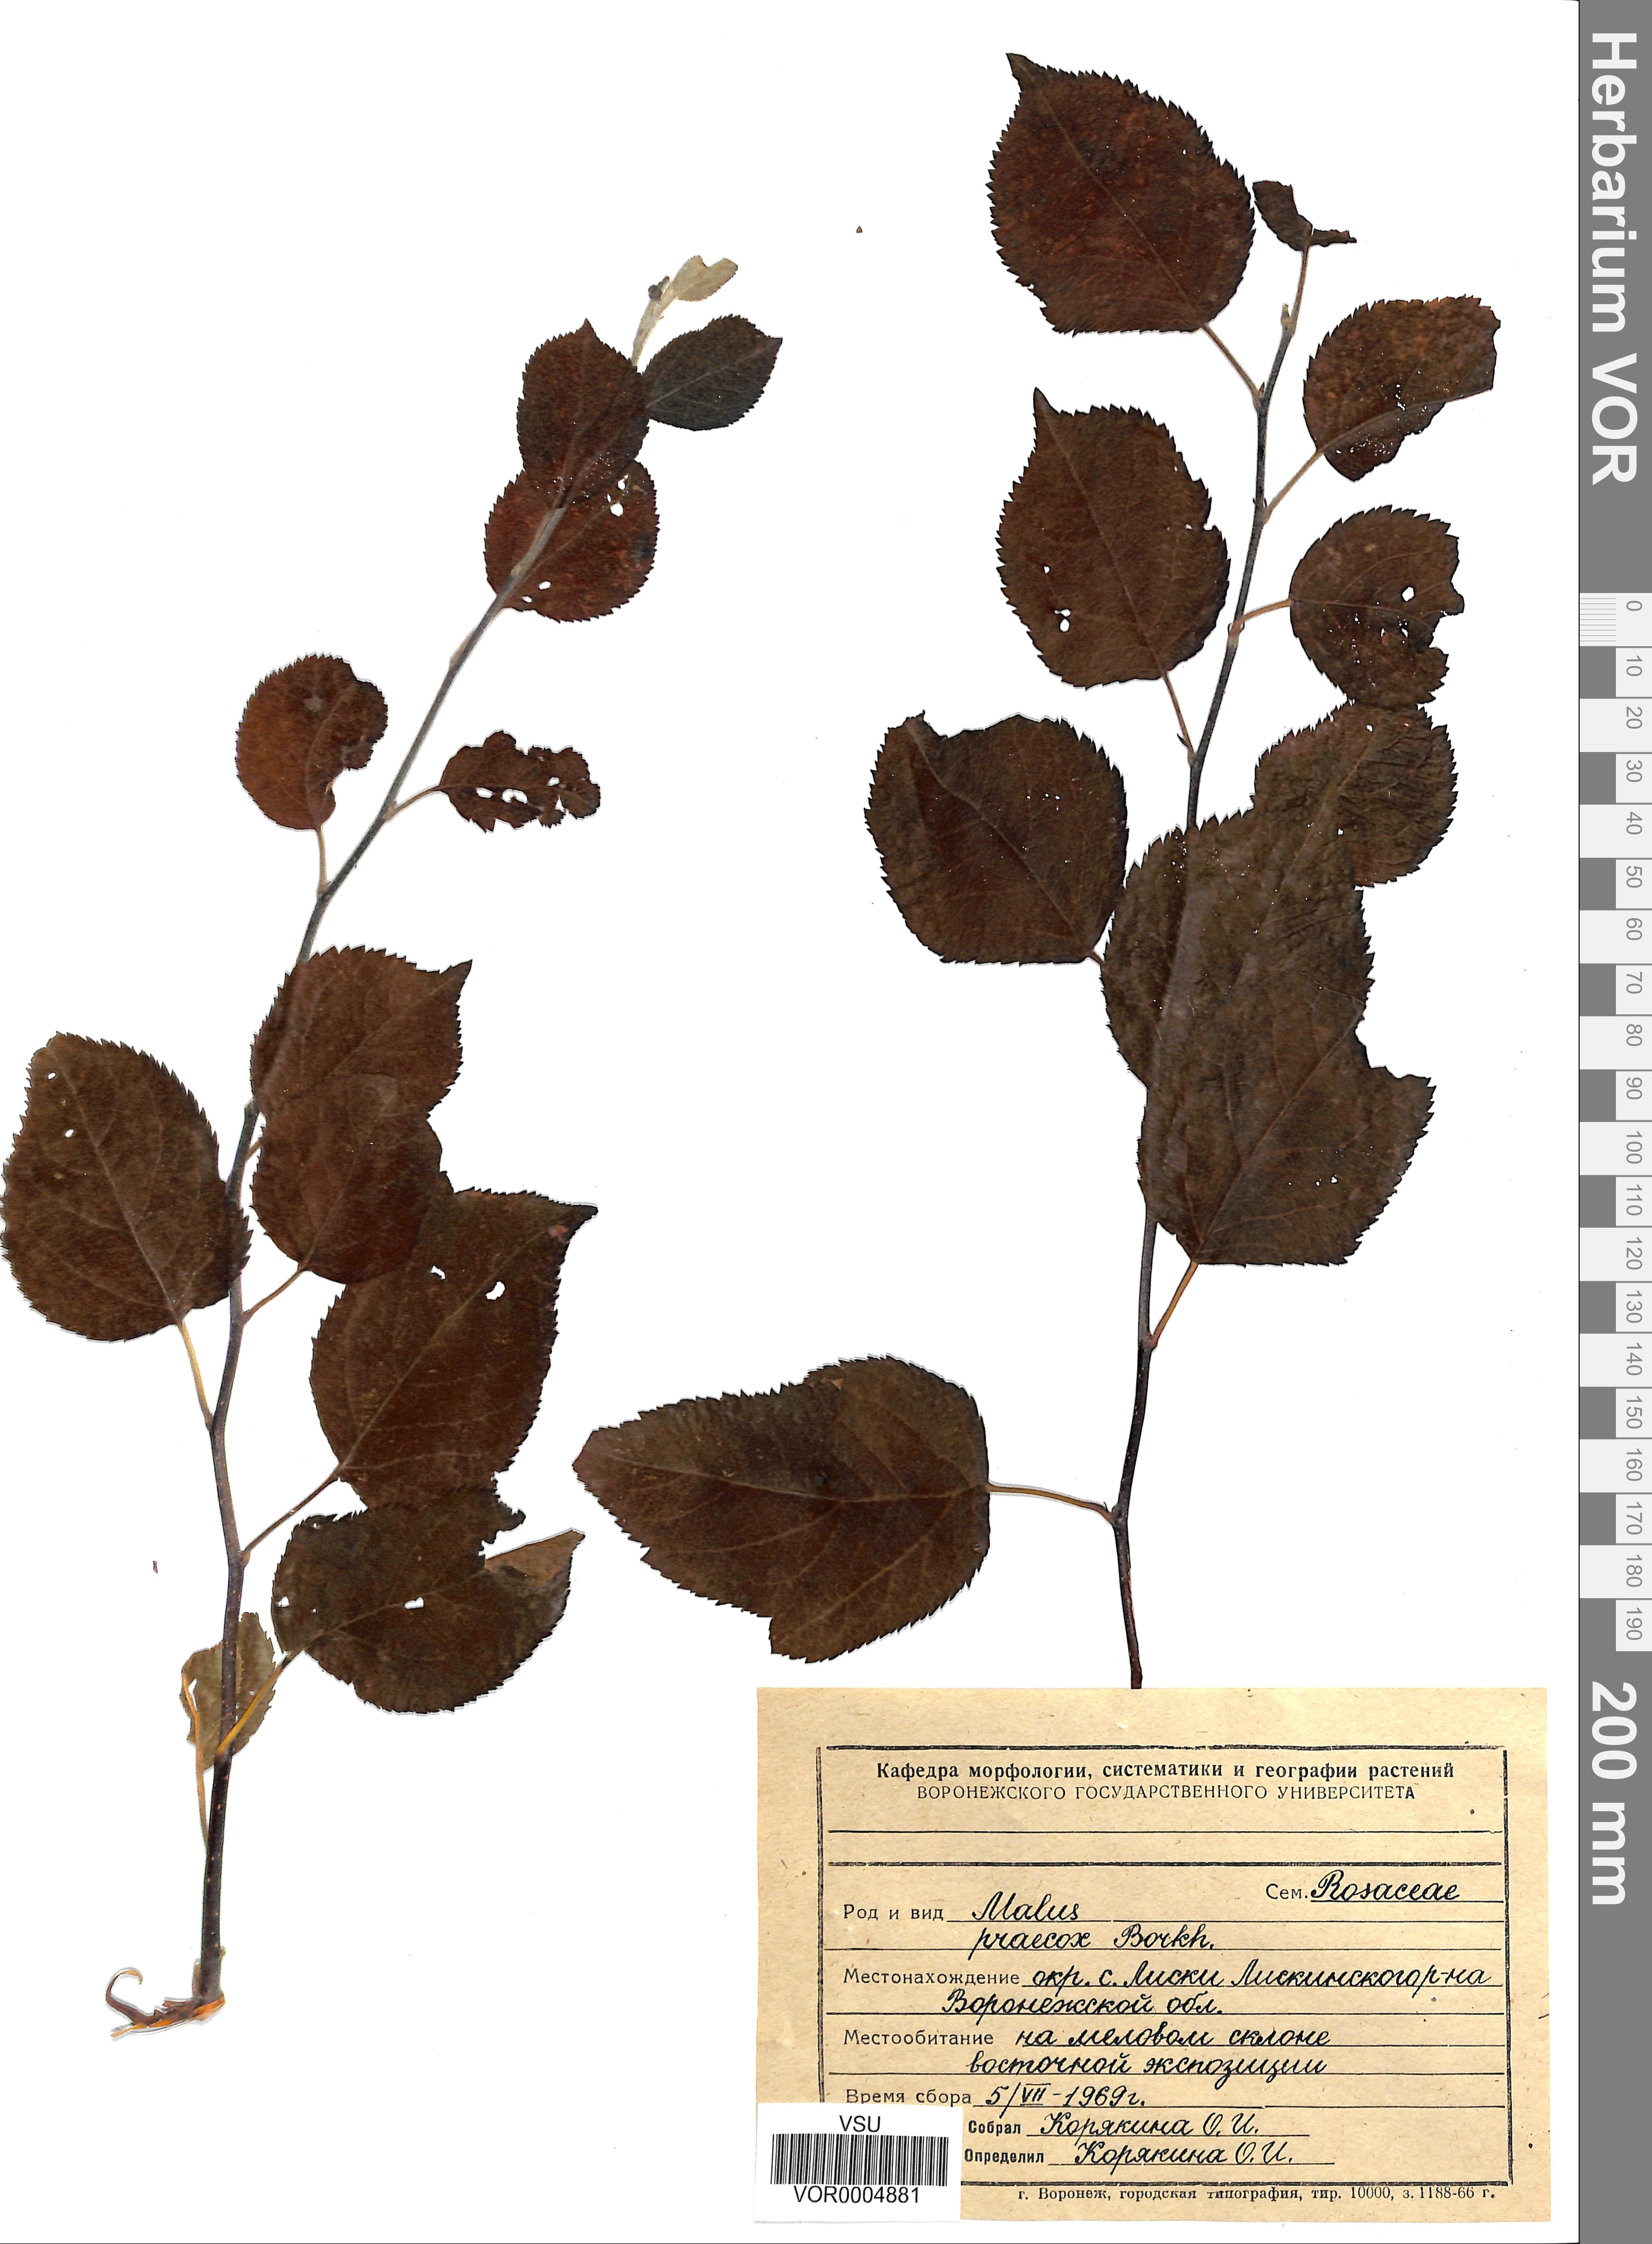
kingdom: Plantae
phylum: Tracheophyta
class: Magnoliopsida
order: Rosales
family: Rosaceae
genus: Malus
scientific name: Malus domestica
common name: Apple
